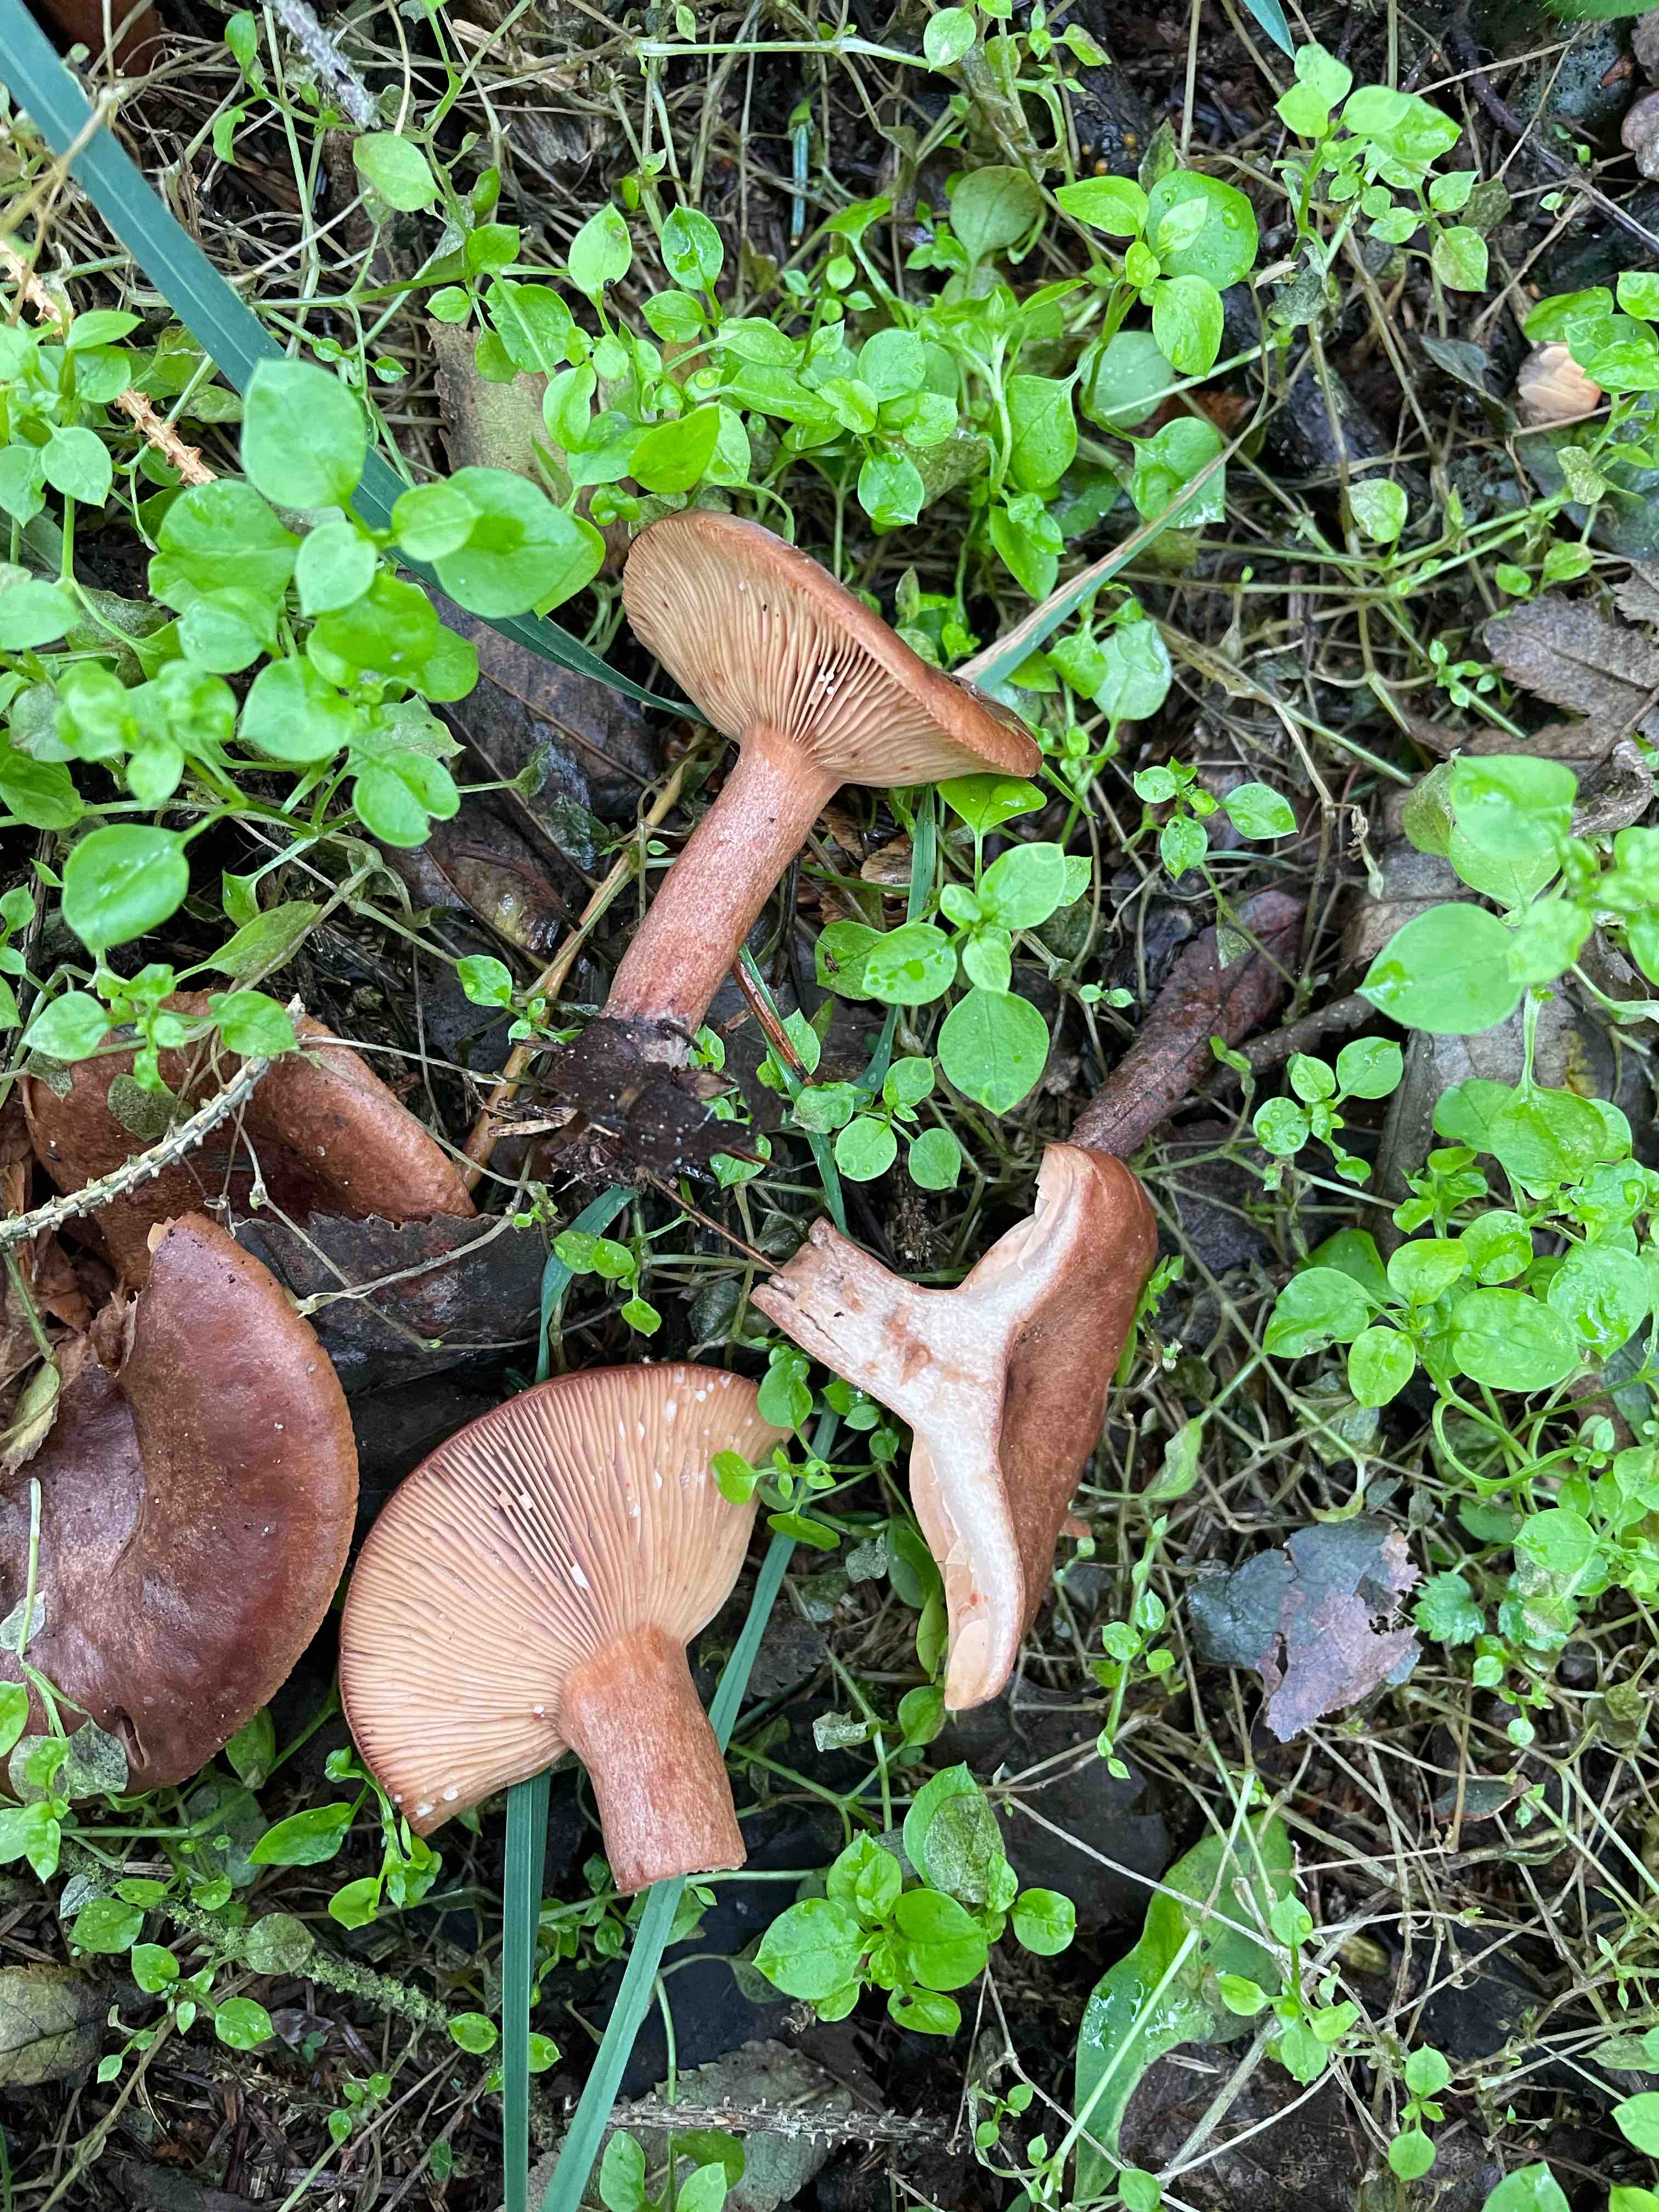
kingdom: Fungi
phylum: Basidiomycota
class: Agaricomycetes
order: Russulales
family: Russulaceae
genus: Lactarius
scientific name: Lactarius camphoratus
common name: kamfer-mælkehat
